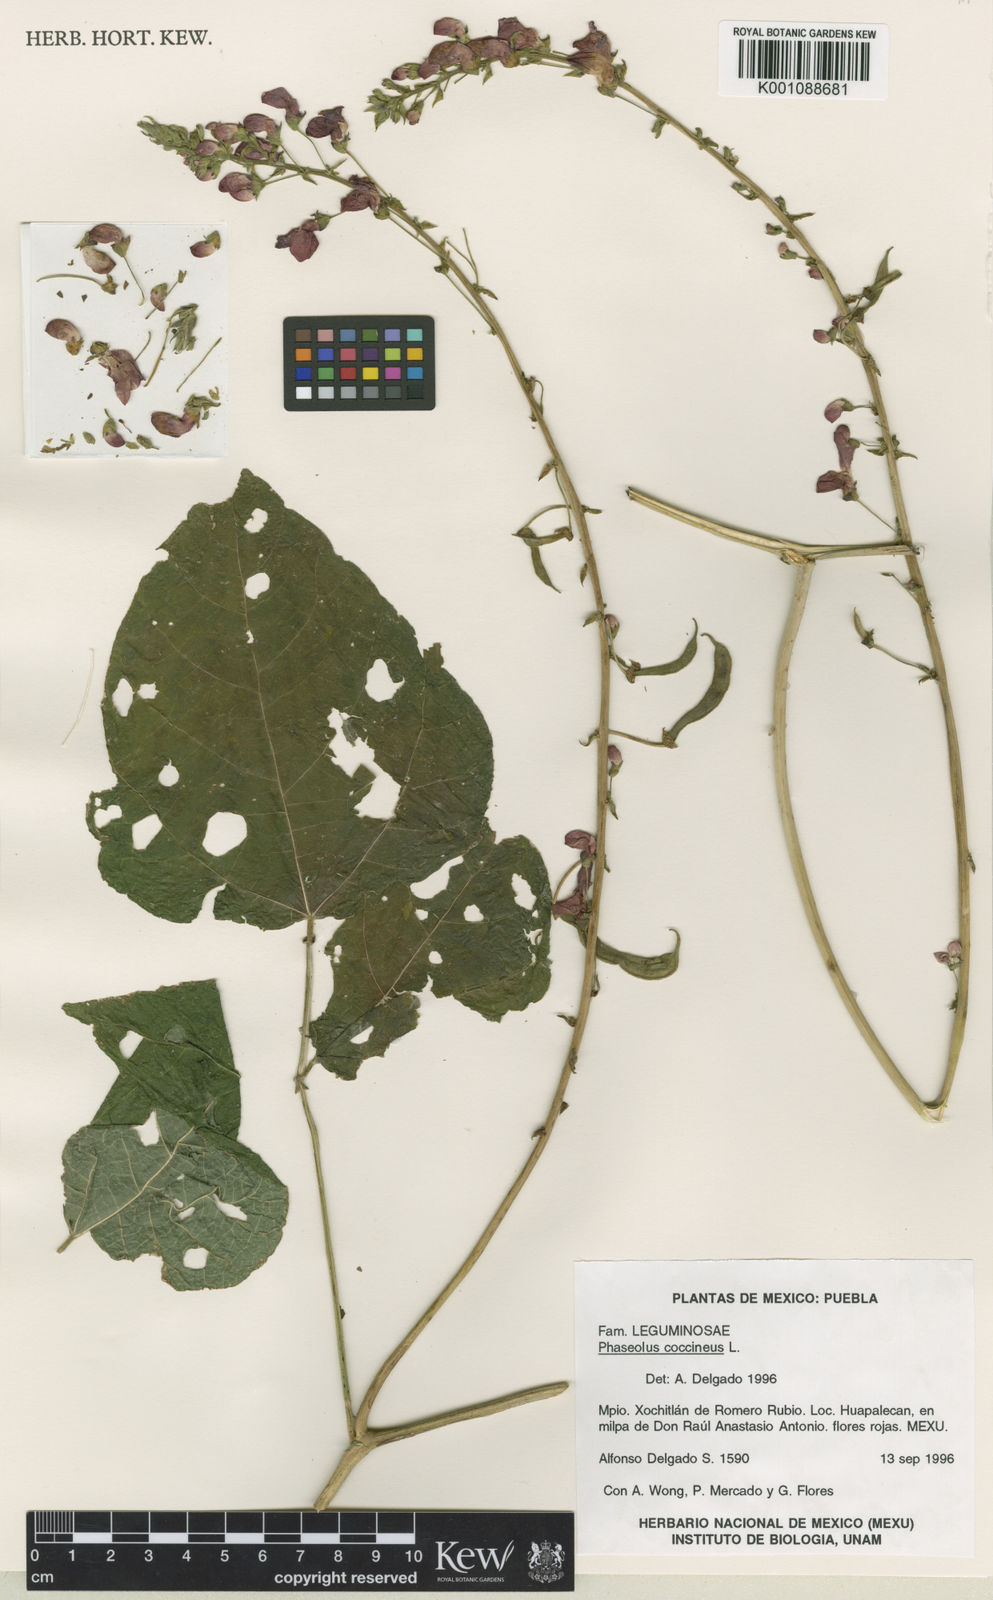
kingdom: Plantae
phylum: Tracheophyta
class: Magnoliopsida
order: Fabales
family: Fabaceae
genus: Phaseolus
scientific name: Phaseolus coccineus
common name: Runner bean
